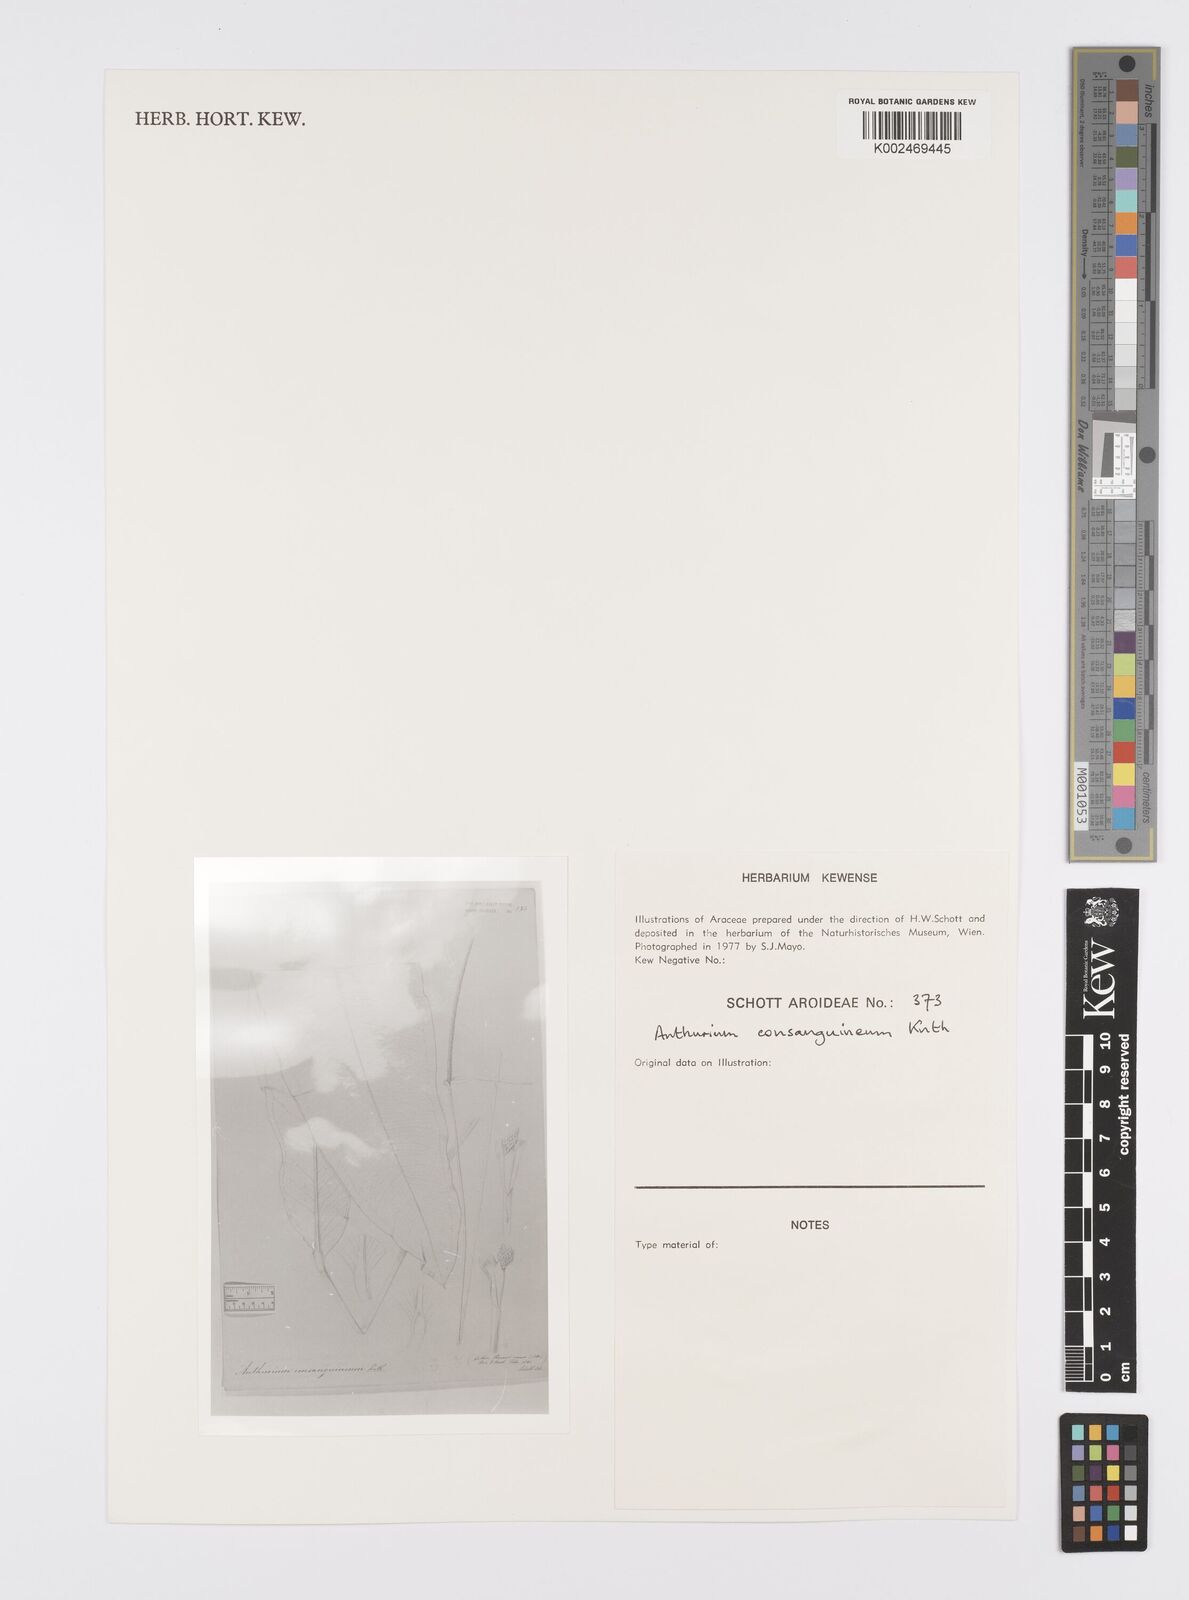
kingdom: Plantae
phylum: Tracheophyta
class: Liliopsida
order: Alismatales
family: Araceae
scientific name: Araceae
